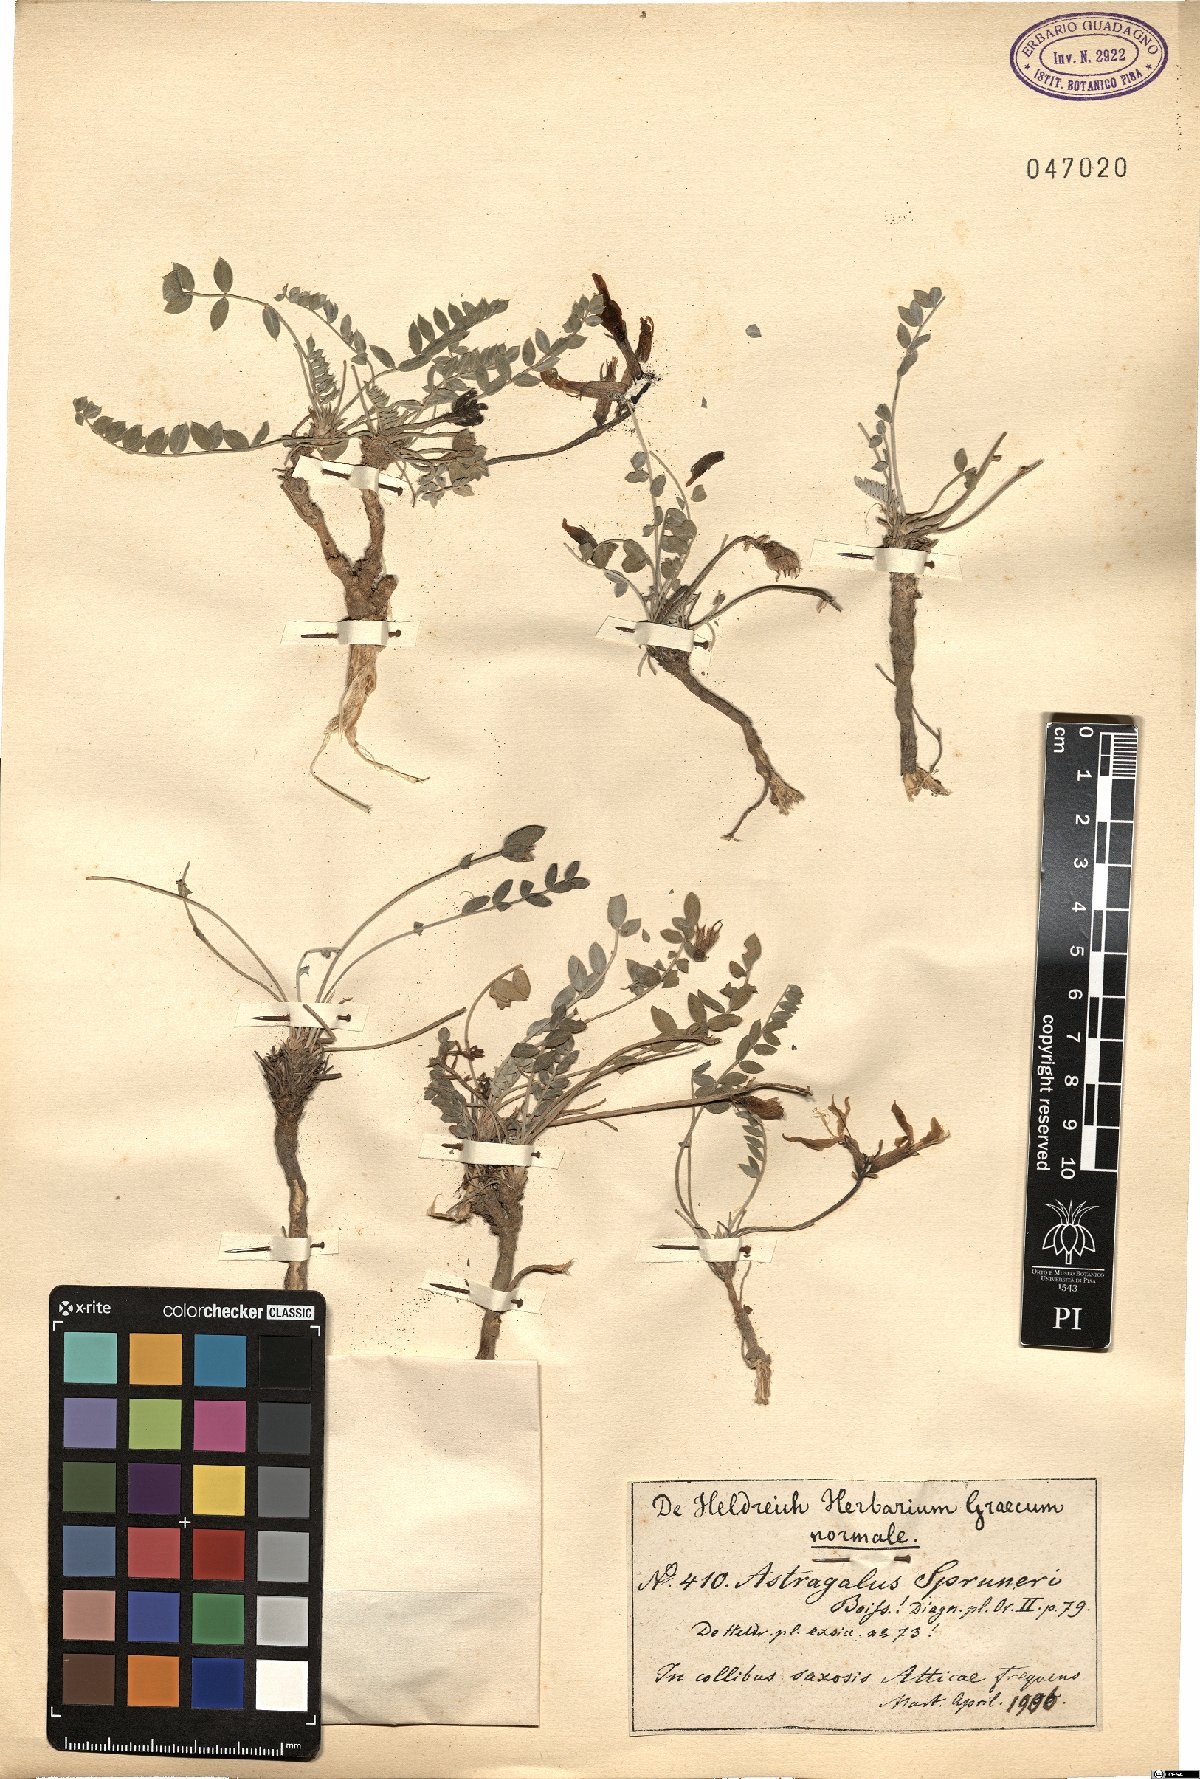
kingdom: Plantae
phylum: Tracheophyta
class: Magnoliopsida
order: Fabales
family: Fabaceae
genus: Astragalus
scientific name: Astragalus spruneri
